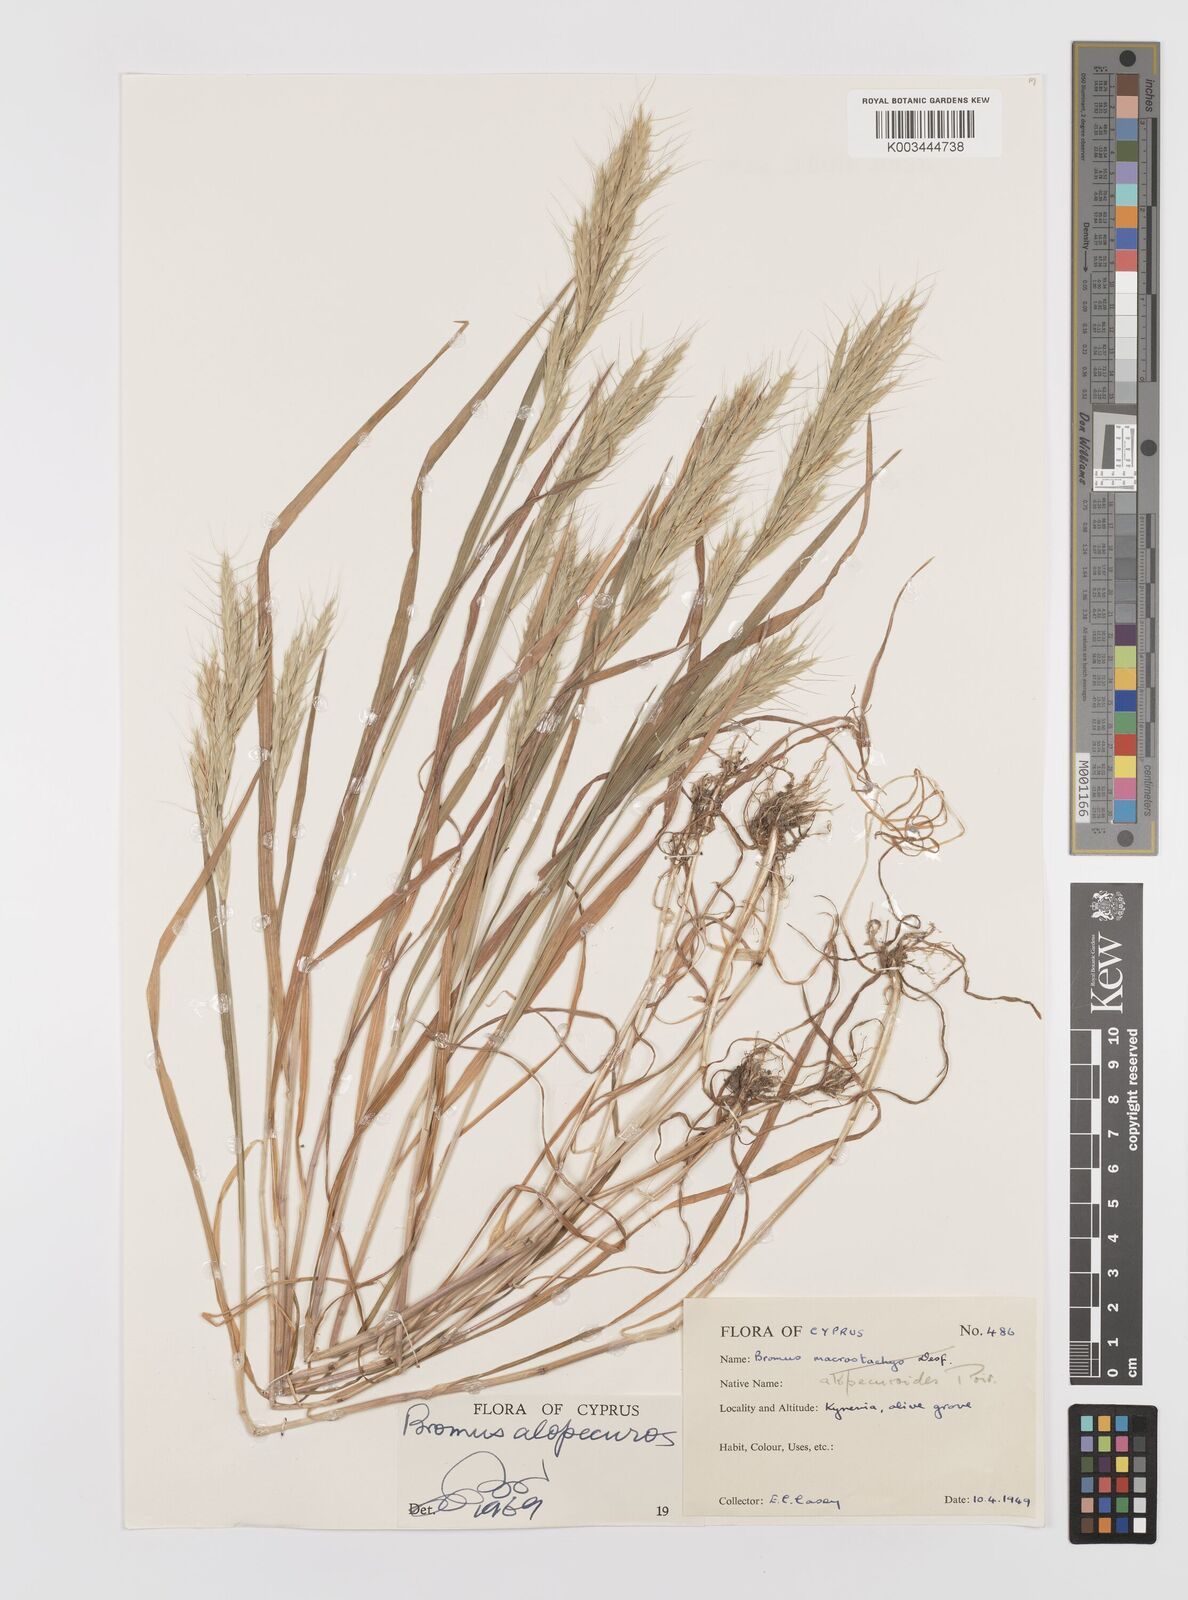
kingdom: Plantae
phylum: Tracheophyta
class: Liliopsida
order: Poales
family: Poaceae
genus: Bromus
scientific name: Bromus alopecuros
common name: Weedy brome
